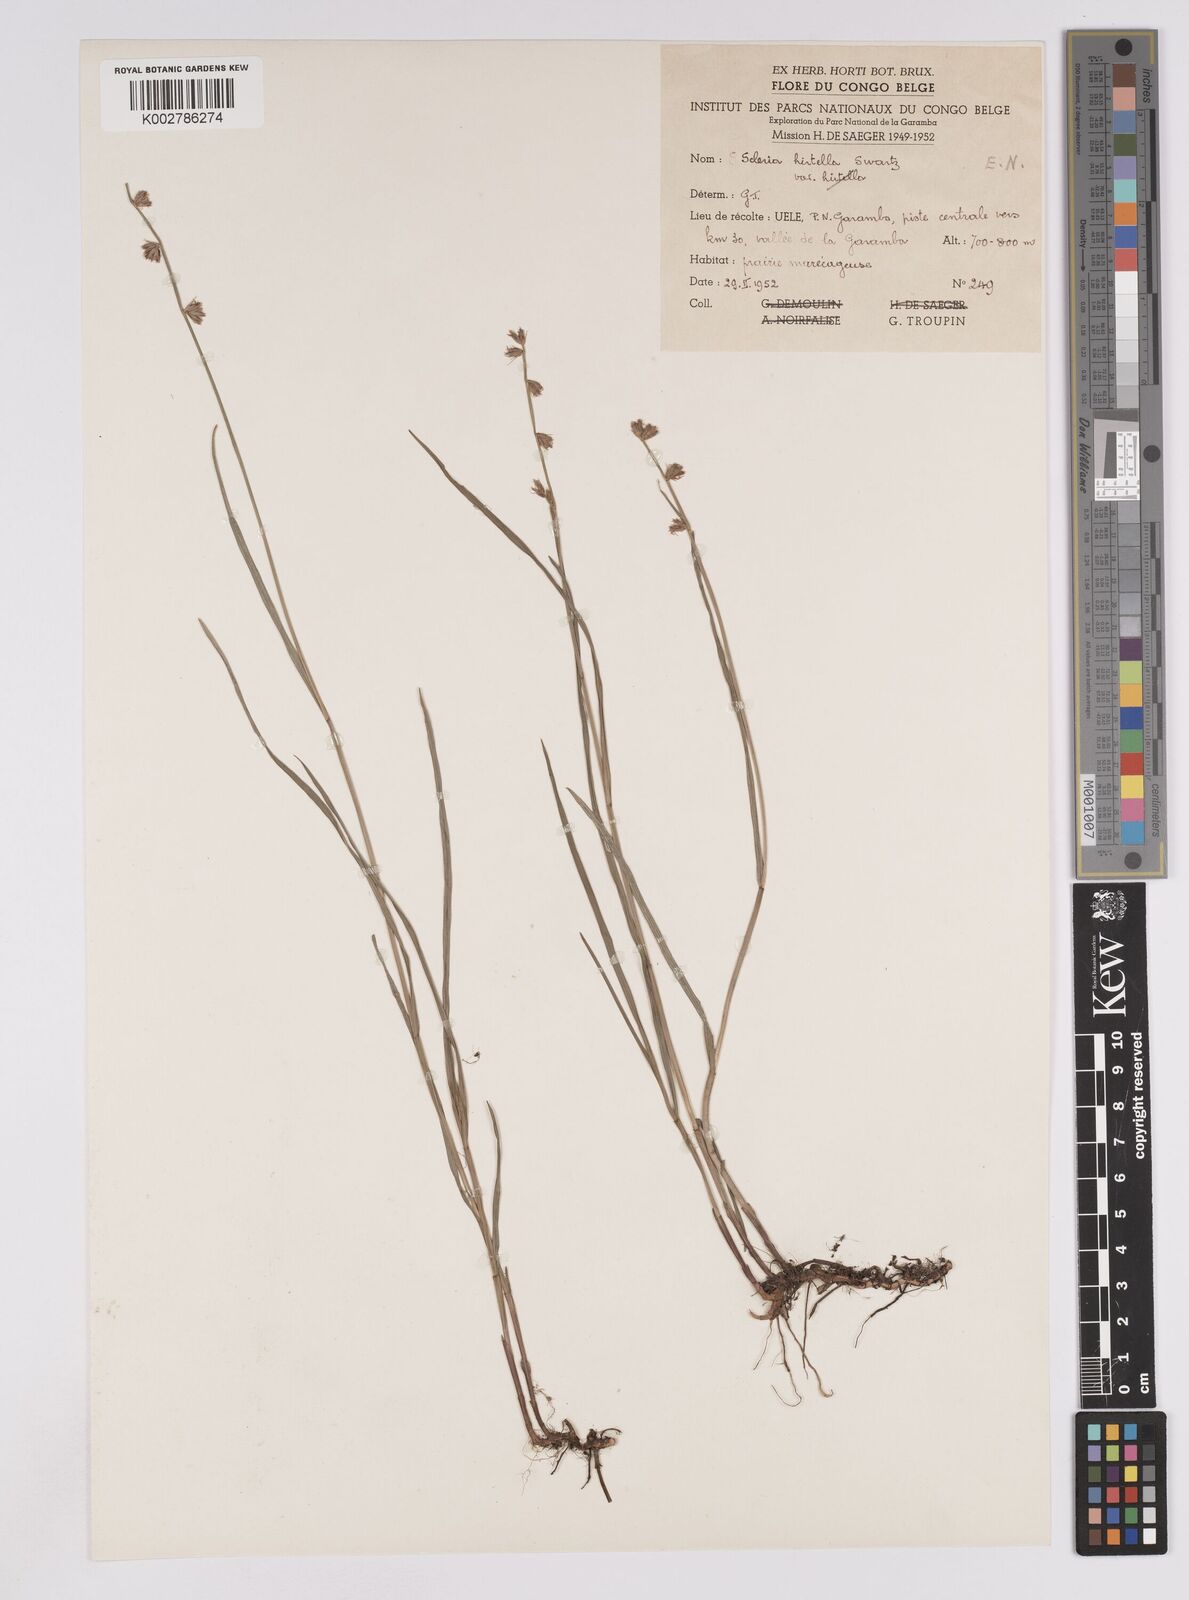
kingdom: Plantae
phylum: Tracheophyta
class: Liliopsida
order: Poales
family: Cyperaceae
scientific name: Cyperaceae
